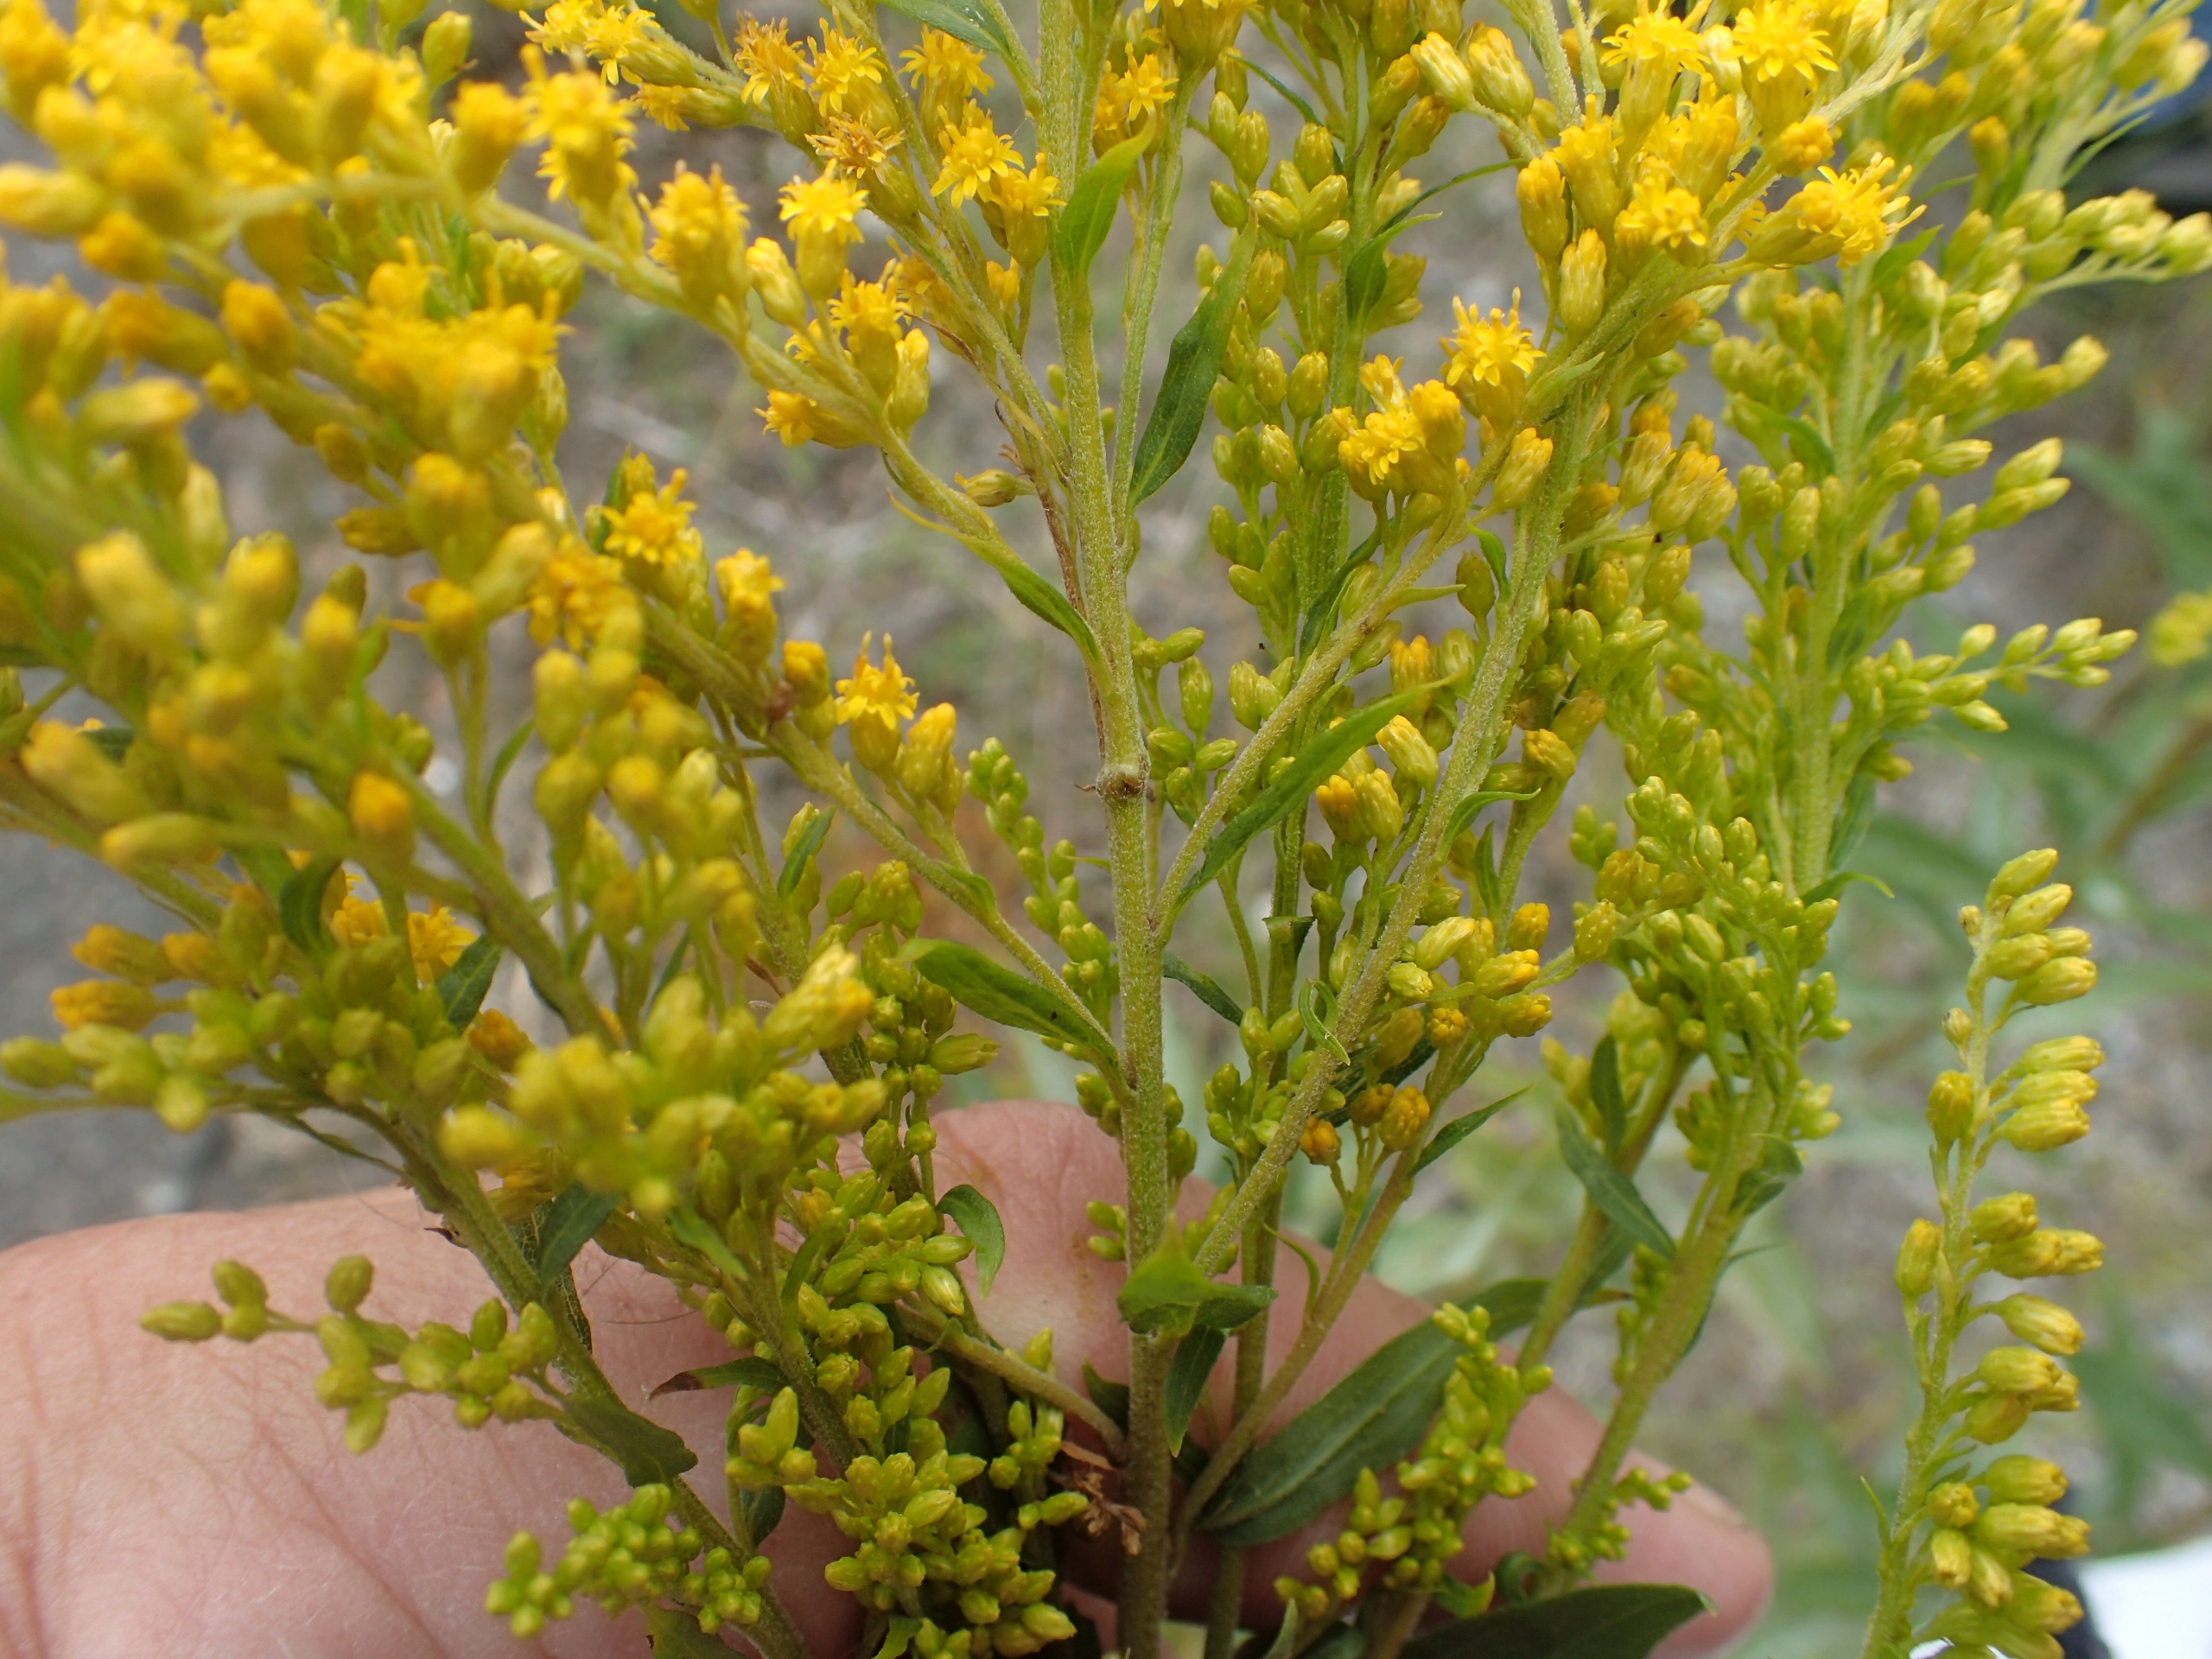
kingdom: Plantae
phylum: Tracheophyta
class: Magnoliopsida
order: Asterales
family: Asteraceae
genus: Solidago
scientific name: Solidago canadensis
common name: Kanadisk gyldenris
